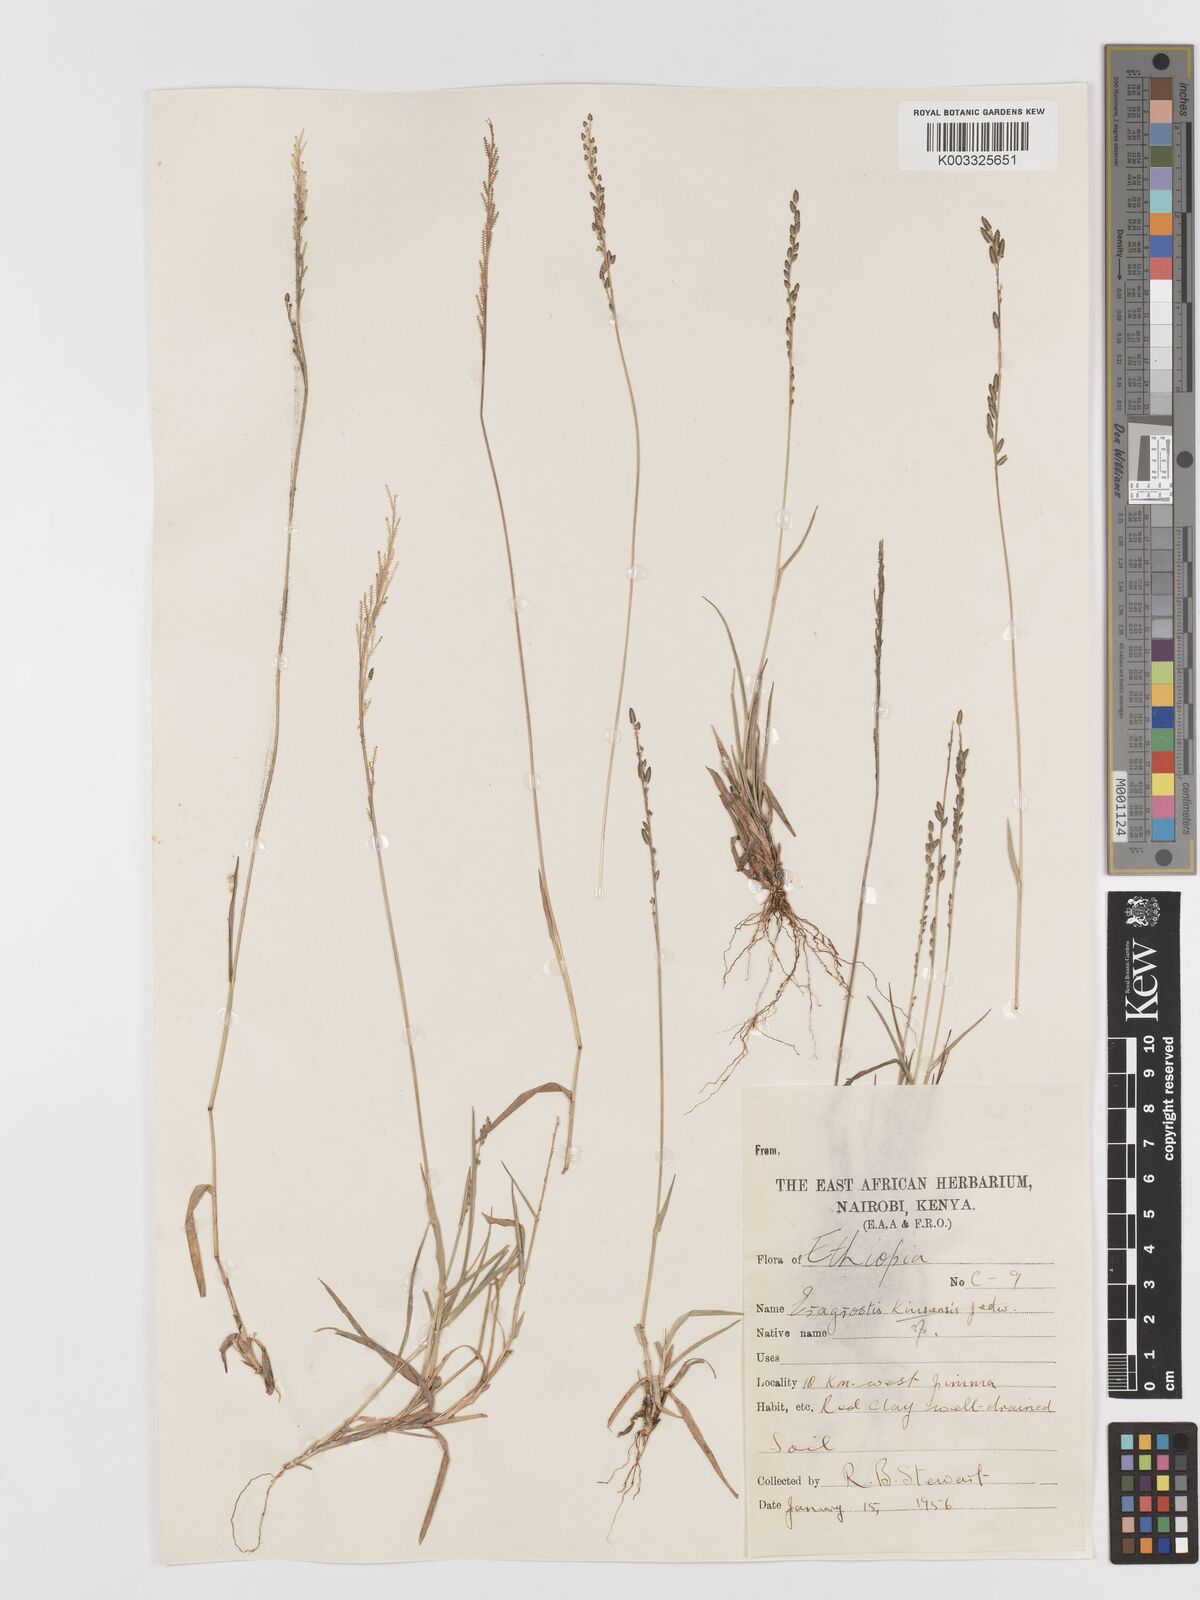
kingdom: Plantae
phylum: Tracheophyta
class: Liliopsida
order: Poales
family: Poaceae
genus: Eragrostis
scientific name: Eragrostis schweinfurthii
